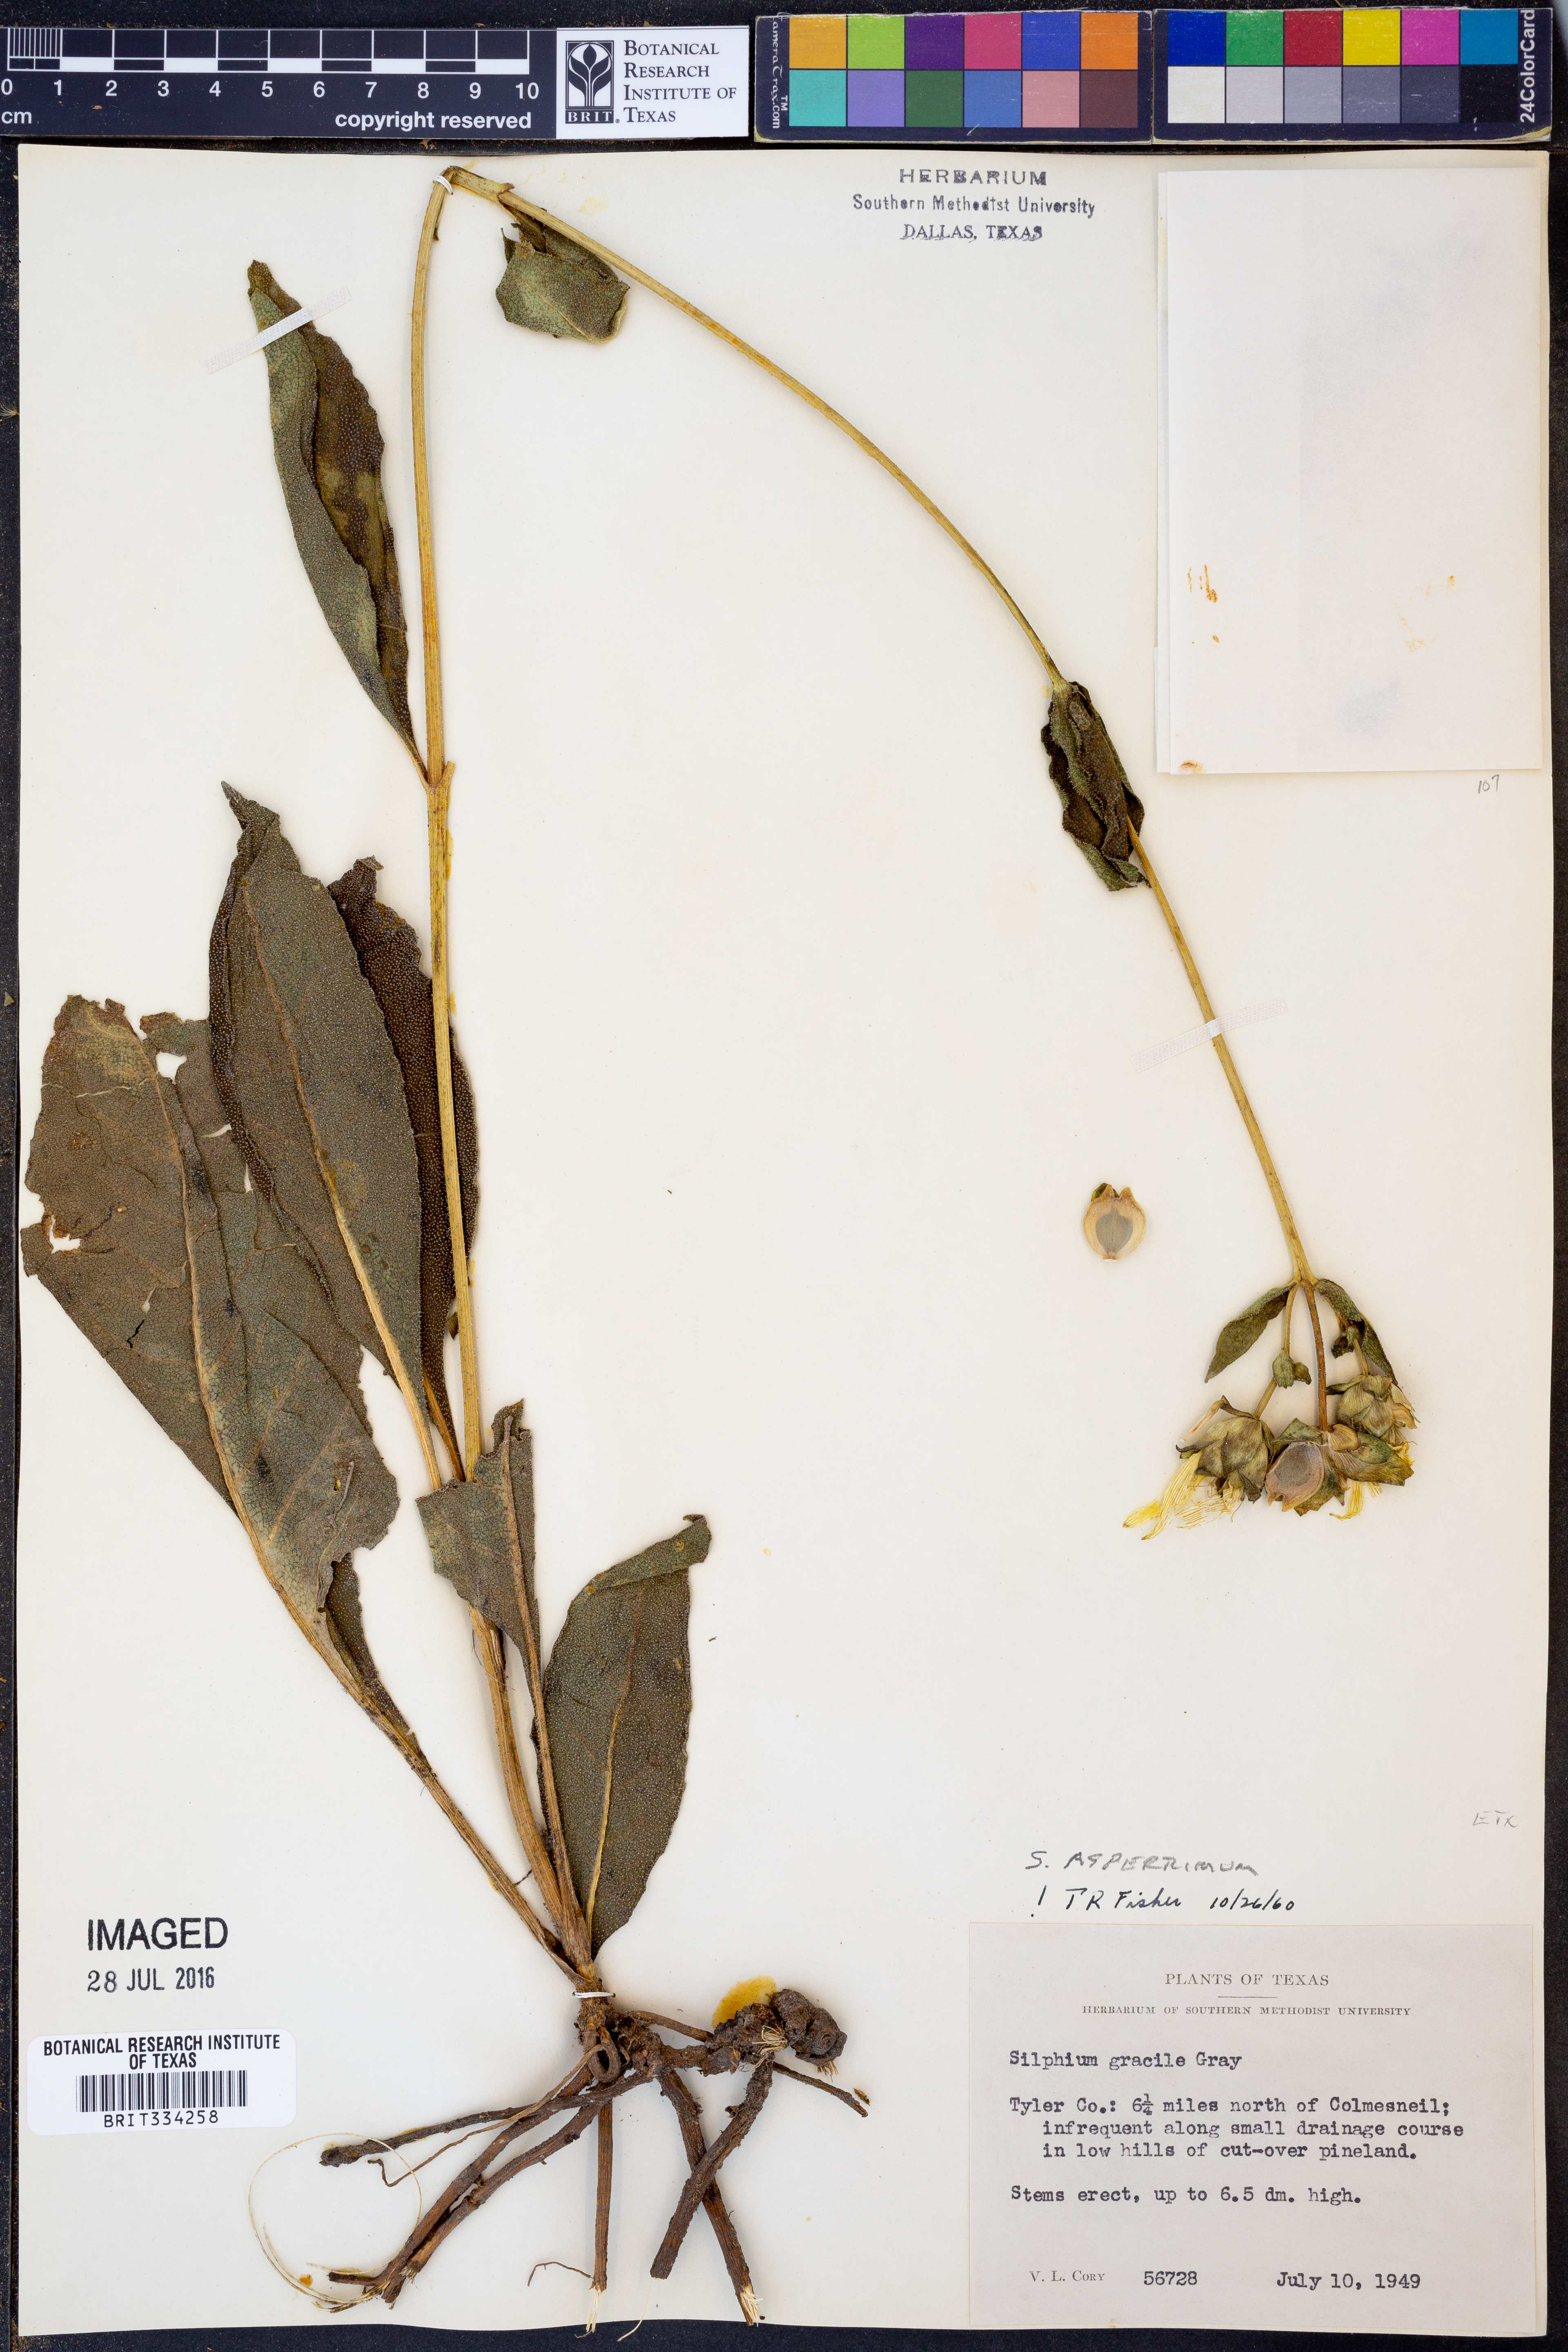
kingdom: Plantae
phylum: Tracheophyta
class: Magnoliopsida
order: Asterales
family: Asteraceae
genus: Silphium
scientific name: Silphium radula
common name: Roughleaf rosinweed
